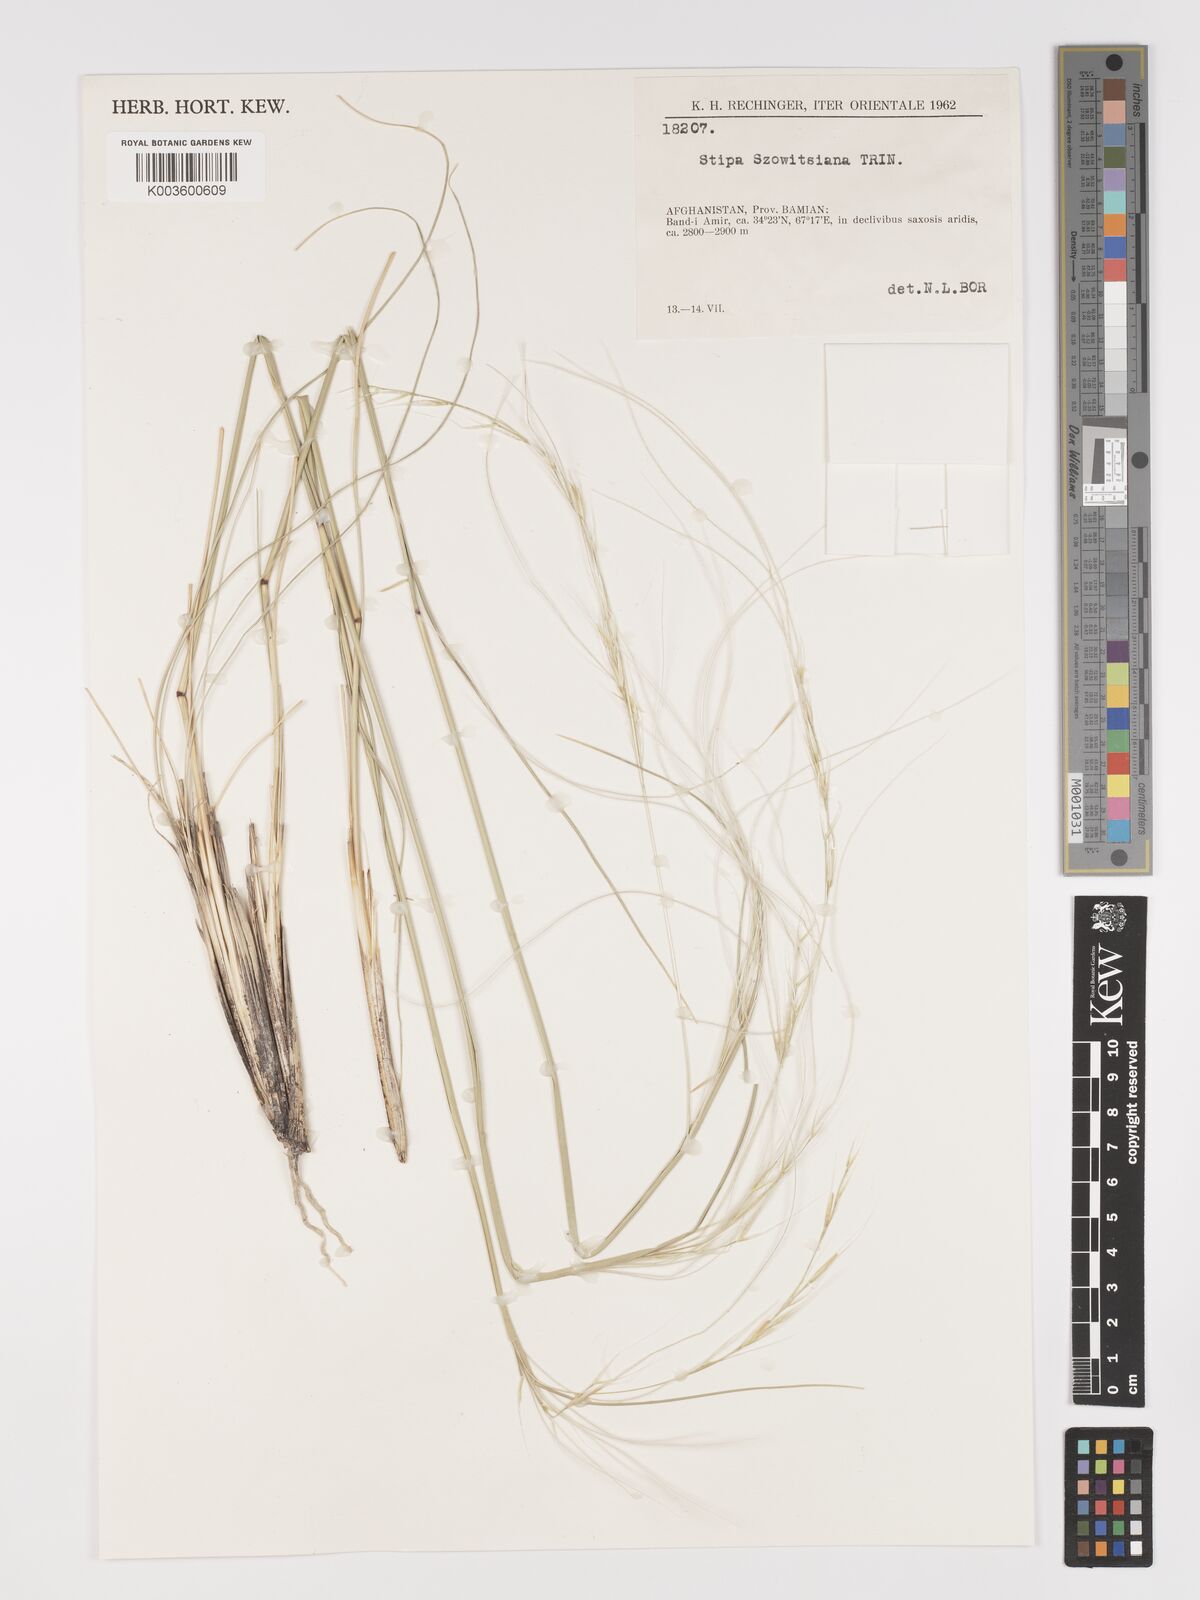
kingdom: Plantae
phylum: Tracheophyta
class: Liliopsida
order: Poales
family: Poaceae
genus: Stipa
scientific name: Stipa barbata
